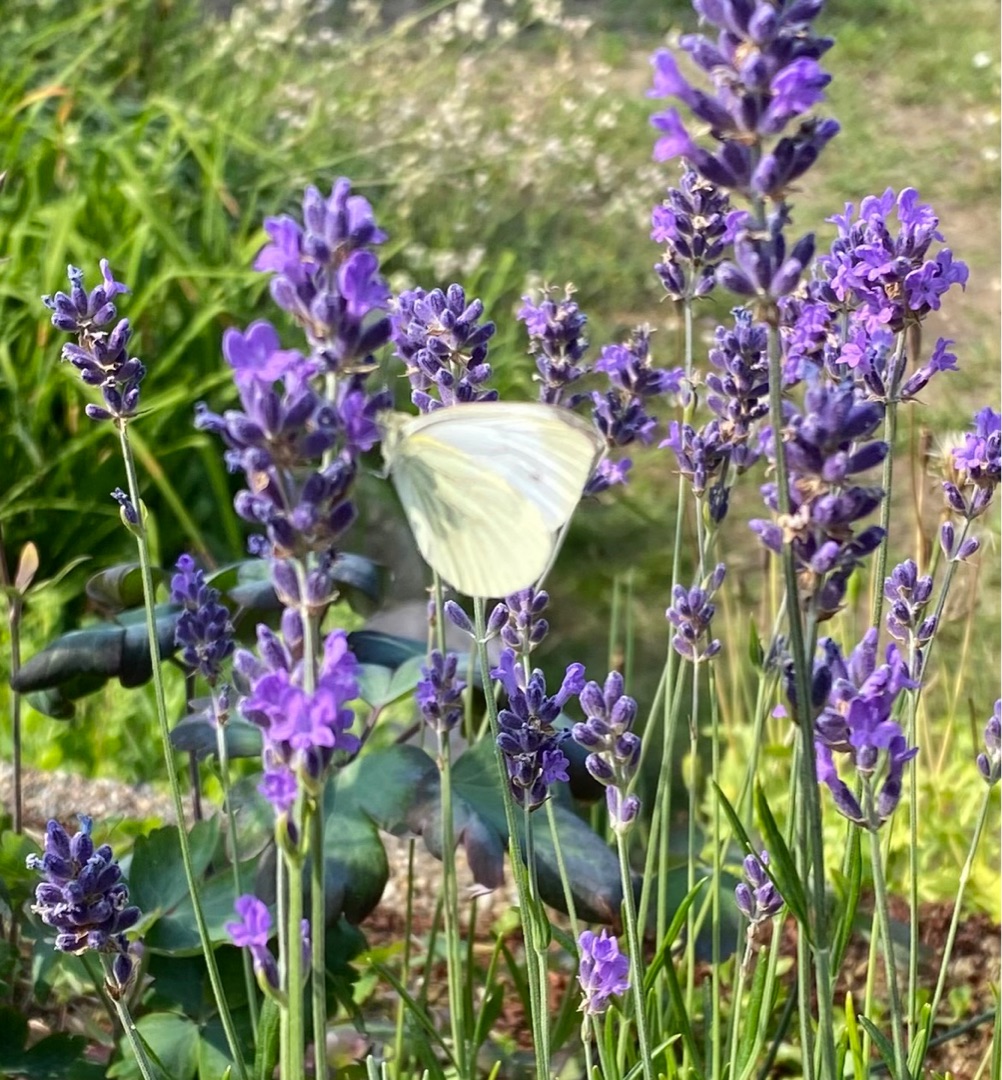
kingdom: Animalia
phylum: Arthropoda
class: Insecta
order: Lepidoptera
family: Pieridae
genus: Pieris
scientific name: Pieris napi
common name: Grønåret kålsommerfugl
